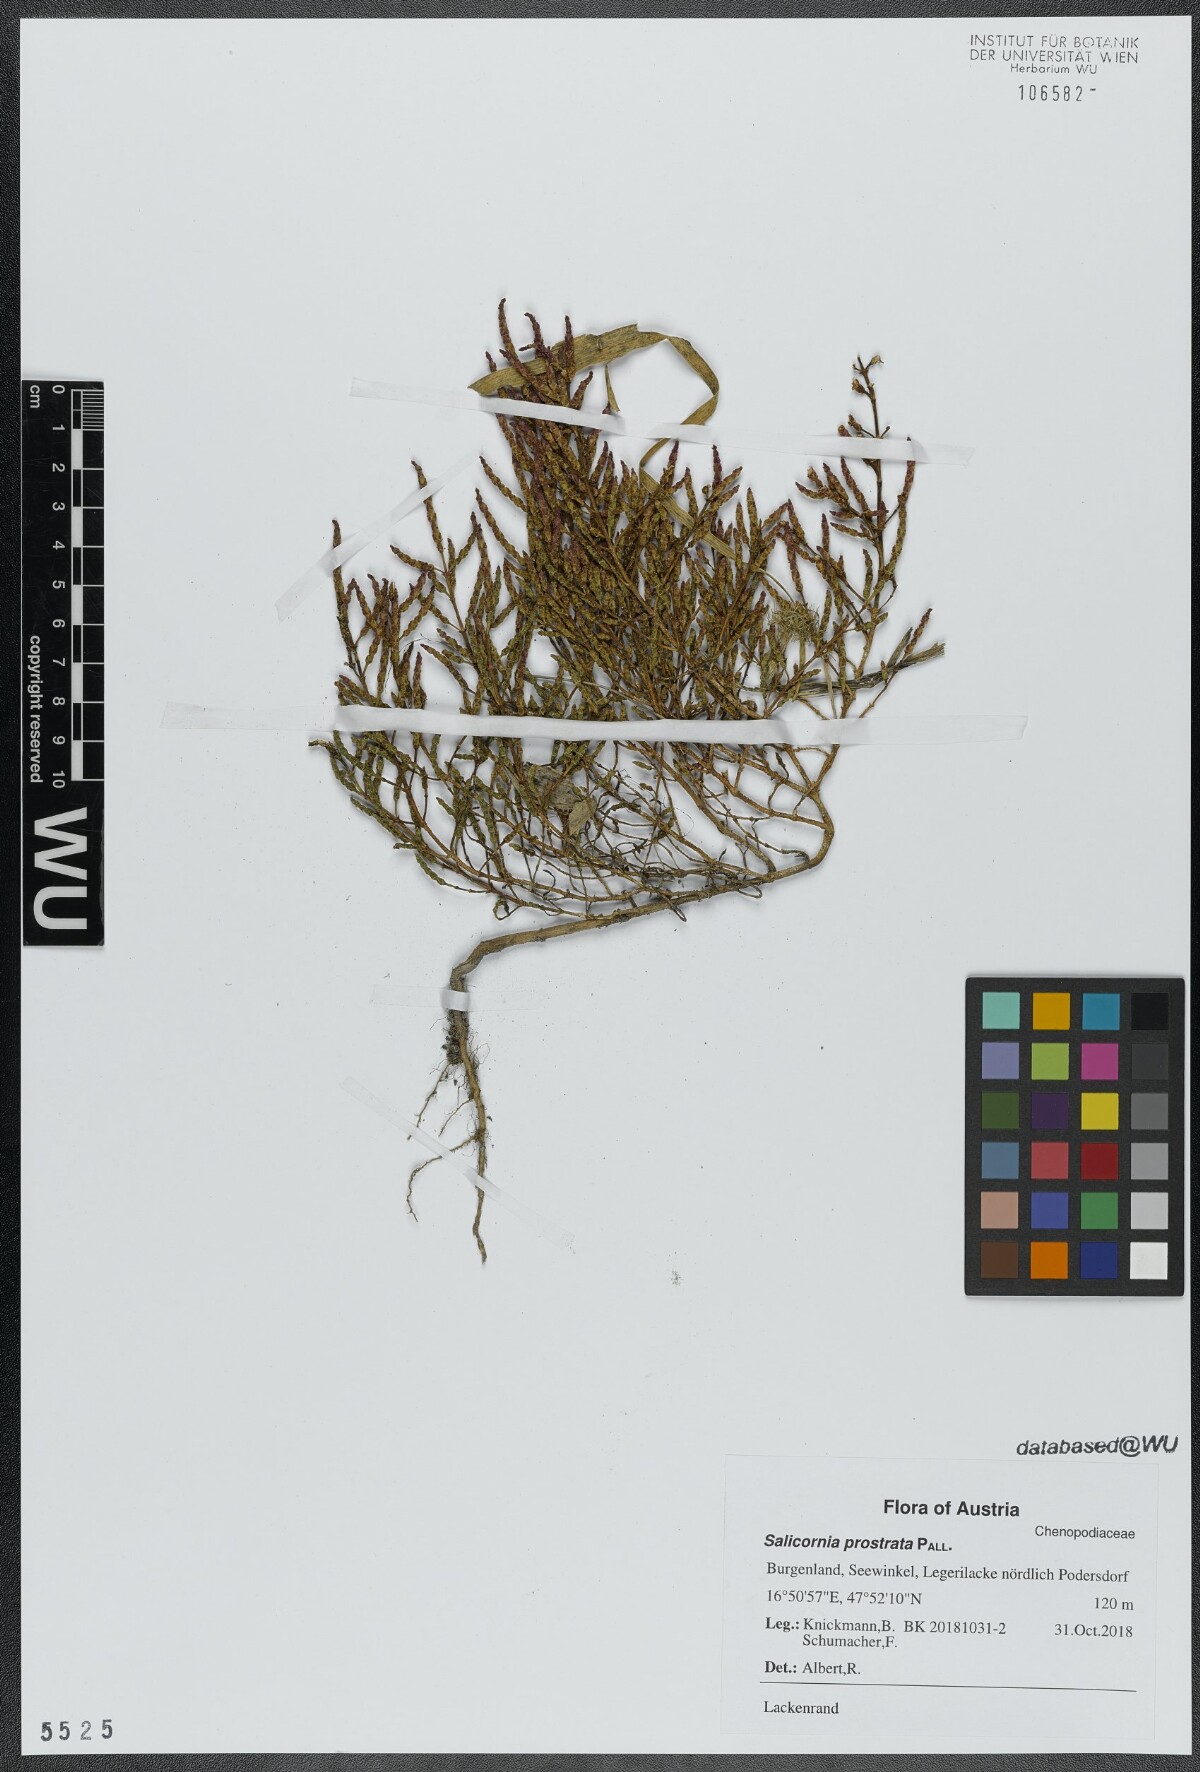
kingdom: Plantae
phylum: Tracheophyta
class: Magnoliopsida
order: Caryophyllales
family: Amaranthaceae
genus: Salicornia
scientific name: Salicornia perennans
